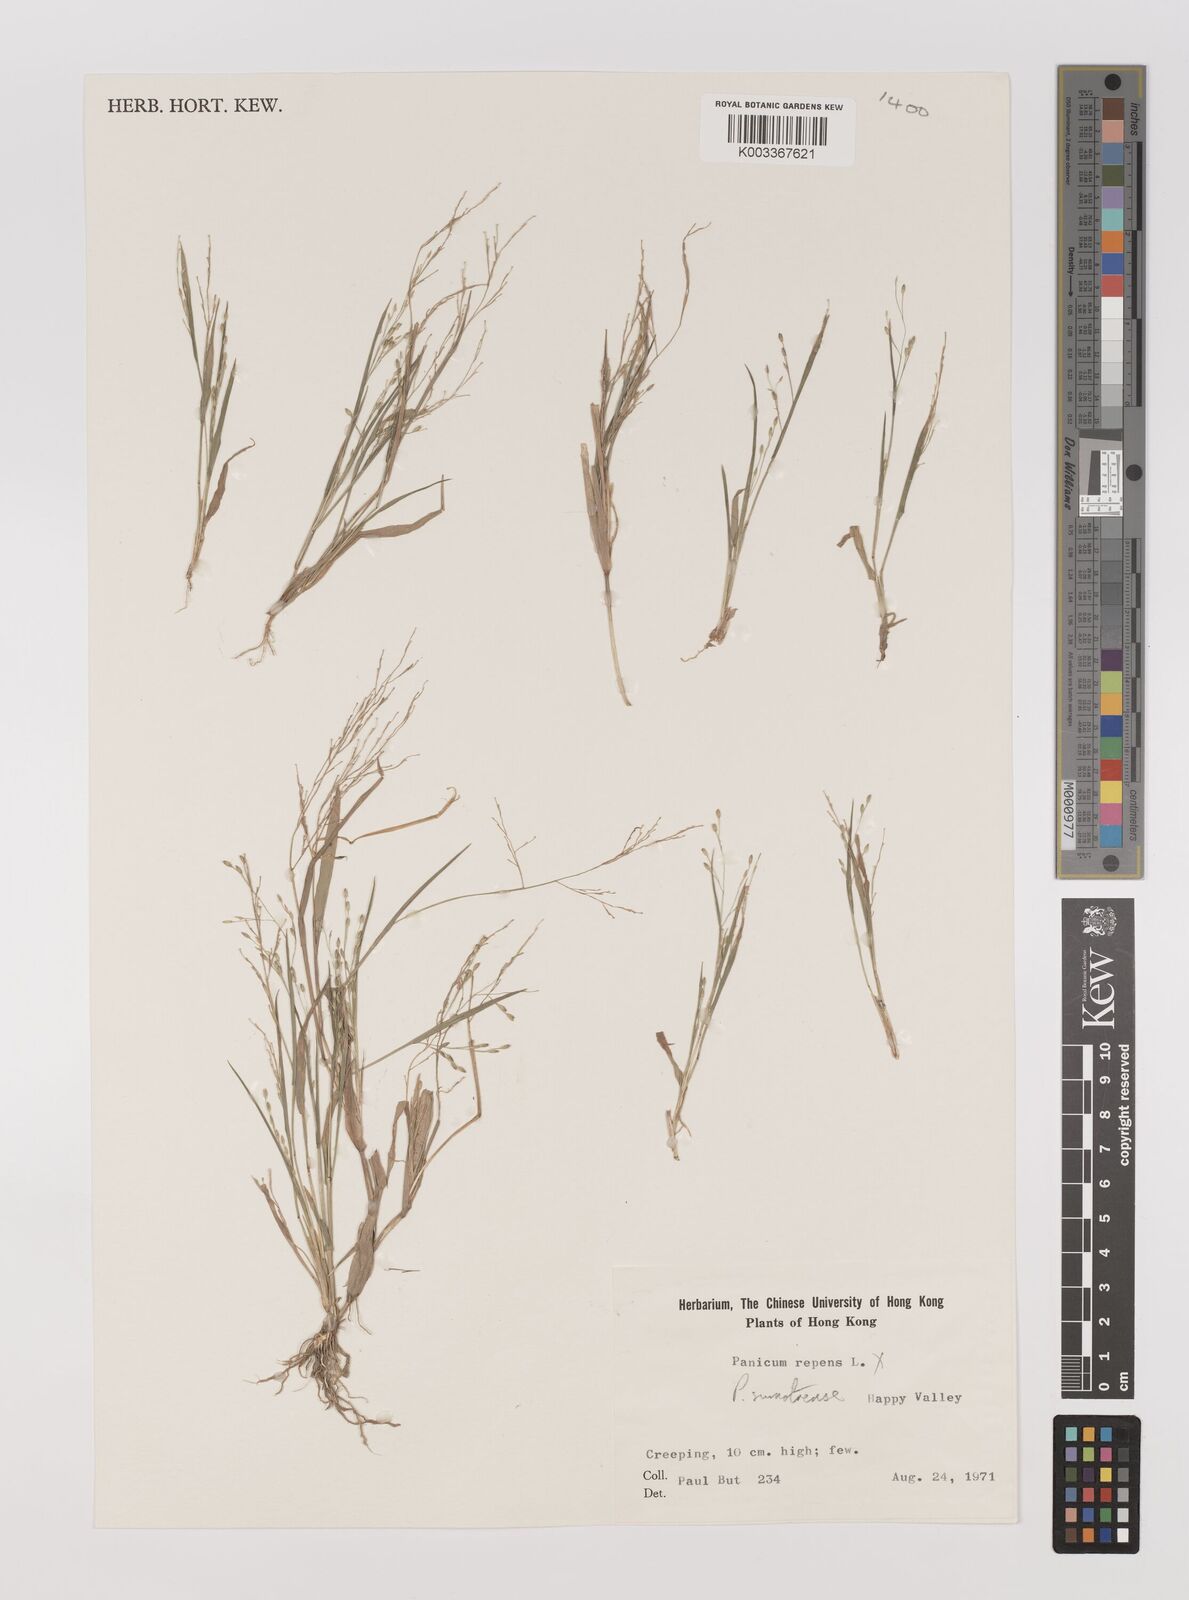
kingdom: Plantae
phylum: Tracheophyta
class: Liliopsida
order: Poales
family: Poaceae
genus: Panicum
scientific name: Panicum sumatrense
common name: Little millet
